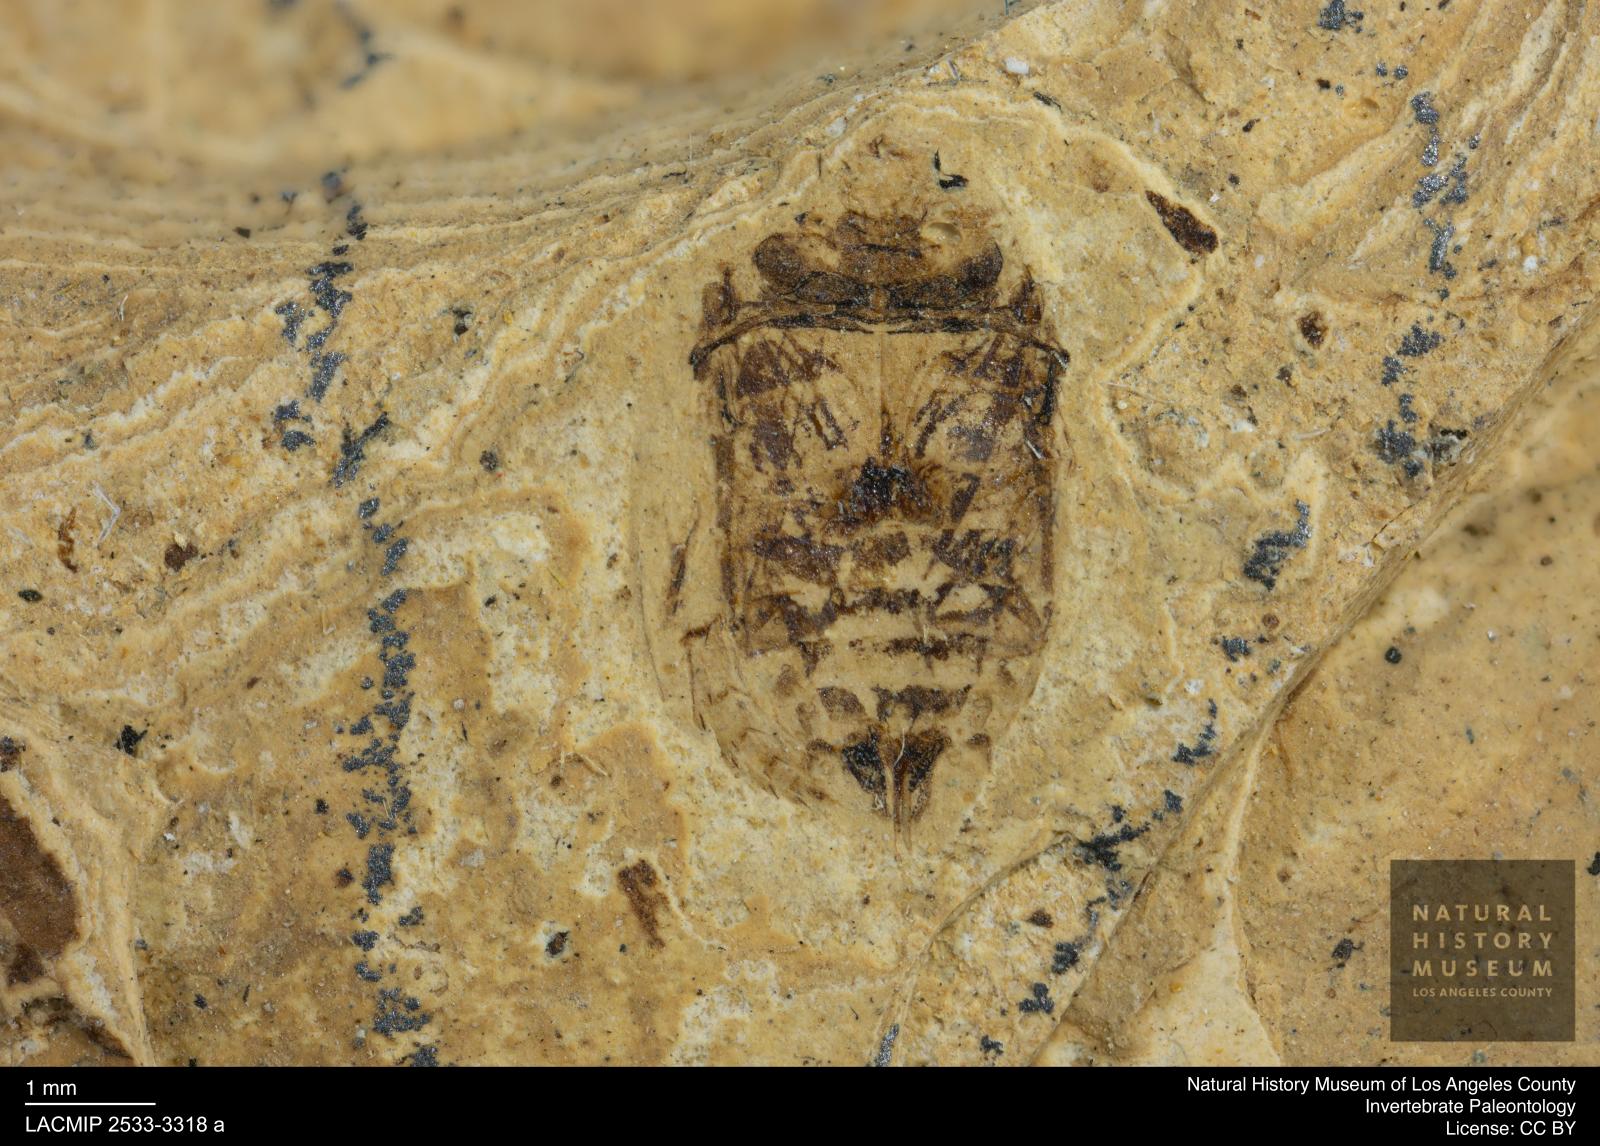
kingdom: Animalia
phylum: Arthropoda
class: Insecta
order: Coleoptera
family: Dytiscidae
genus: Laccophilus
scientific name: Laccophilus Palaeogyrinus strigatus
